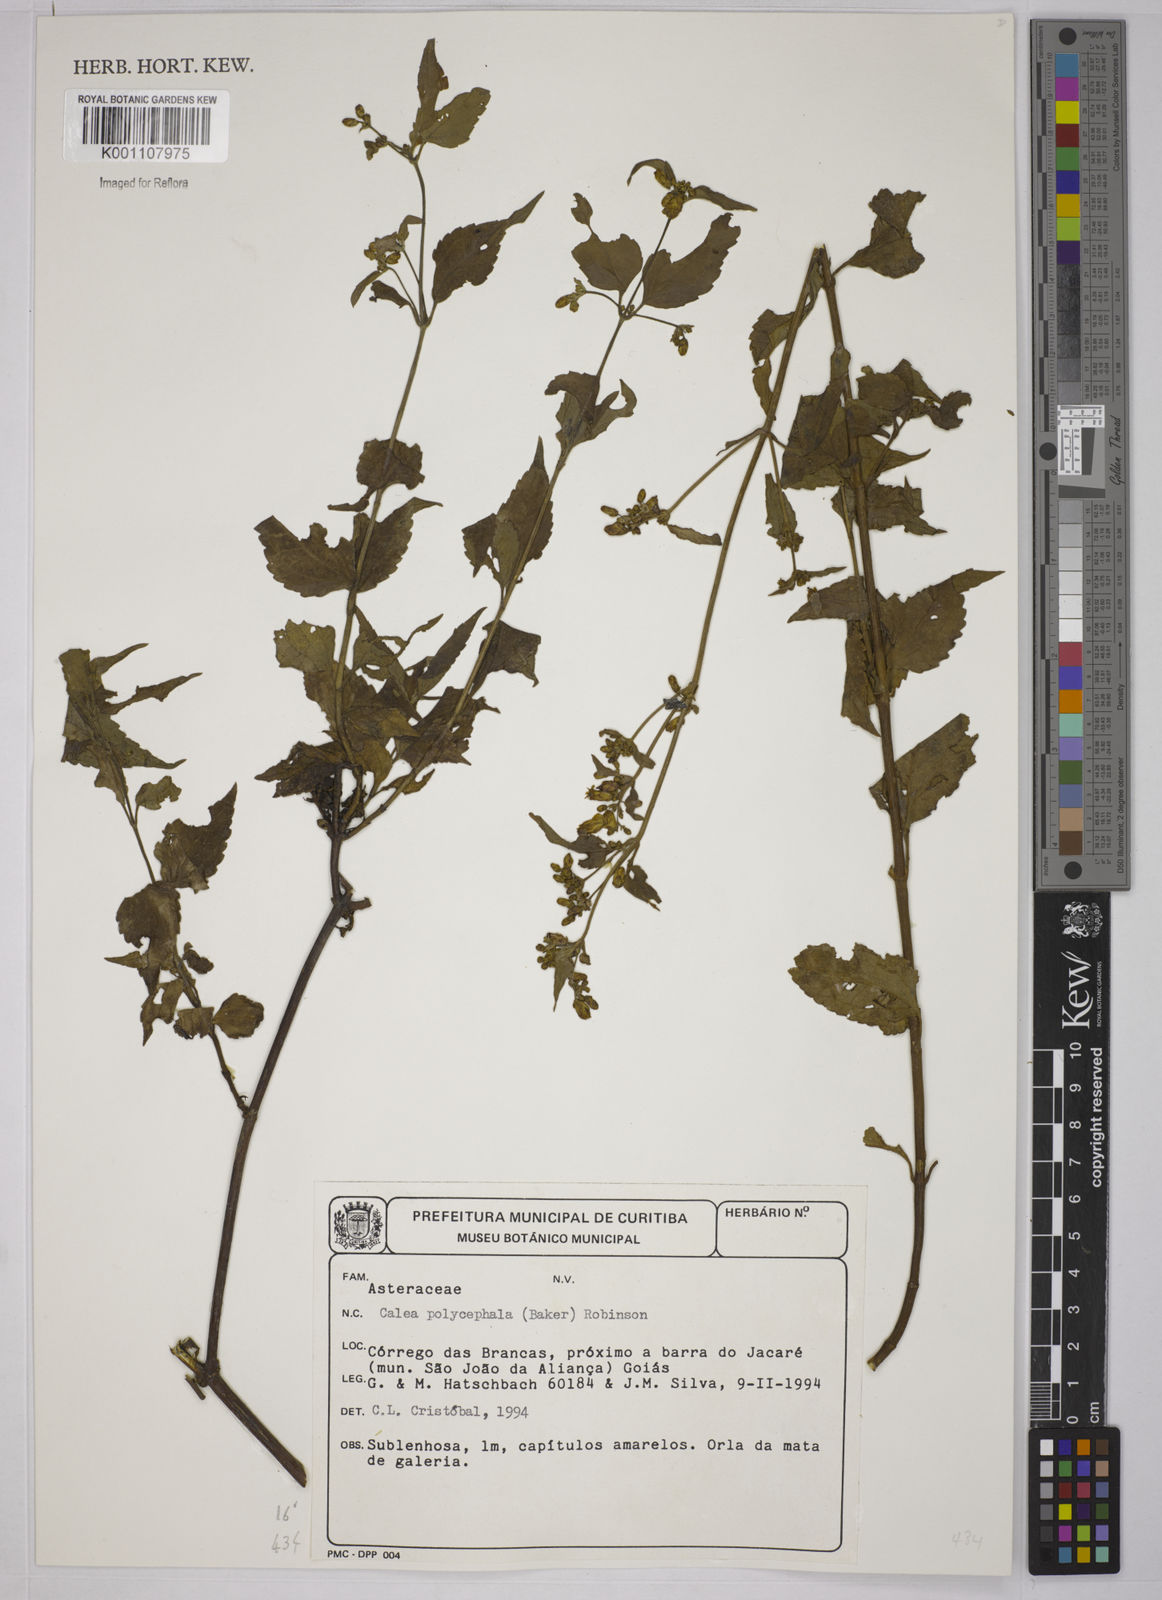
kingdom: Plantae
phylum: Tracheophyta
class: Magnoliopsida
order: Asterales
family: Asteraceae
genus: Calea
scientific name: Calea polycephala
